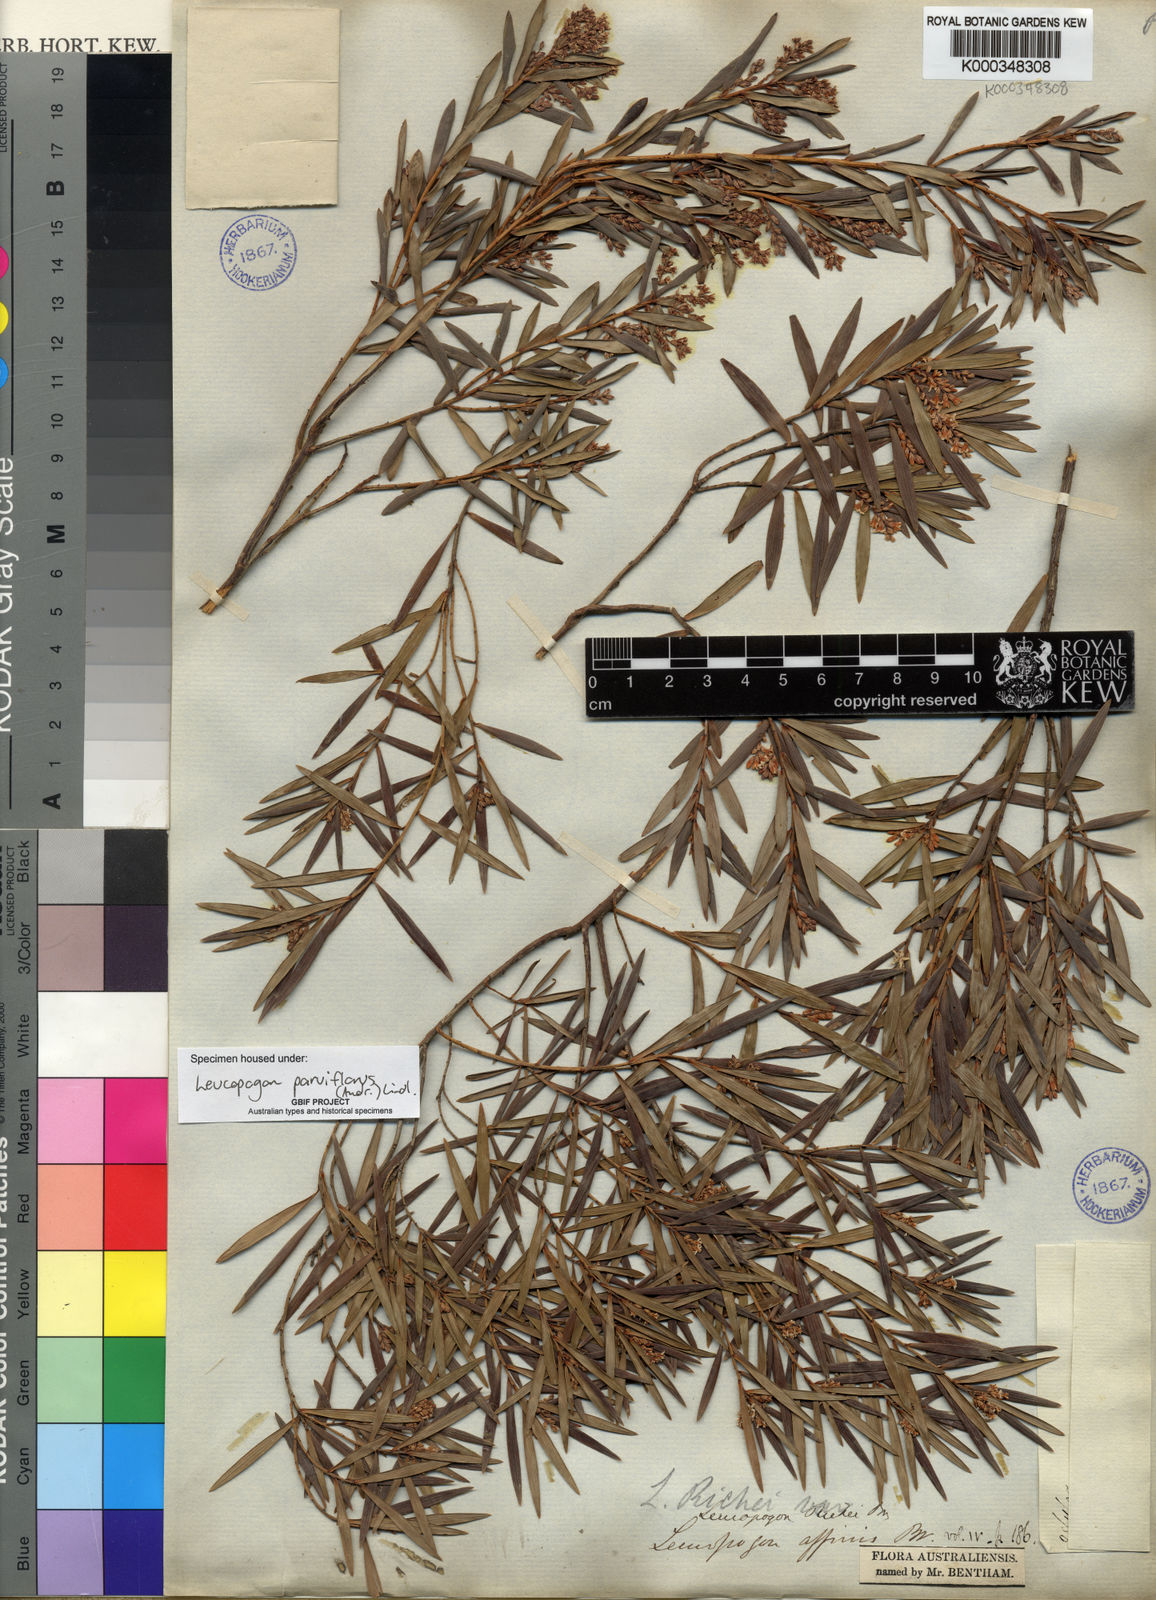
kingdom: Plantae
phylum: Tracheophyta
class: Magnoliopsida
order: Ericales
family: Ericaceae
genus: Leptecophylla
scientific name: Leptecophylla parvifolia
